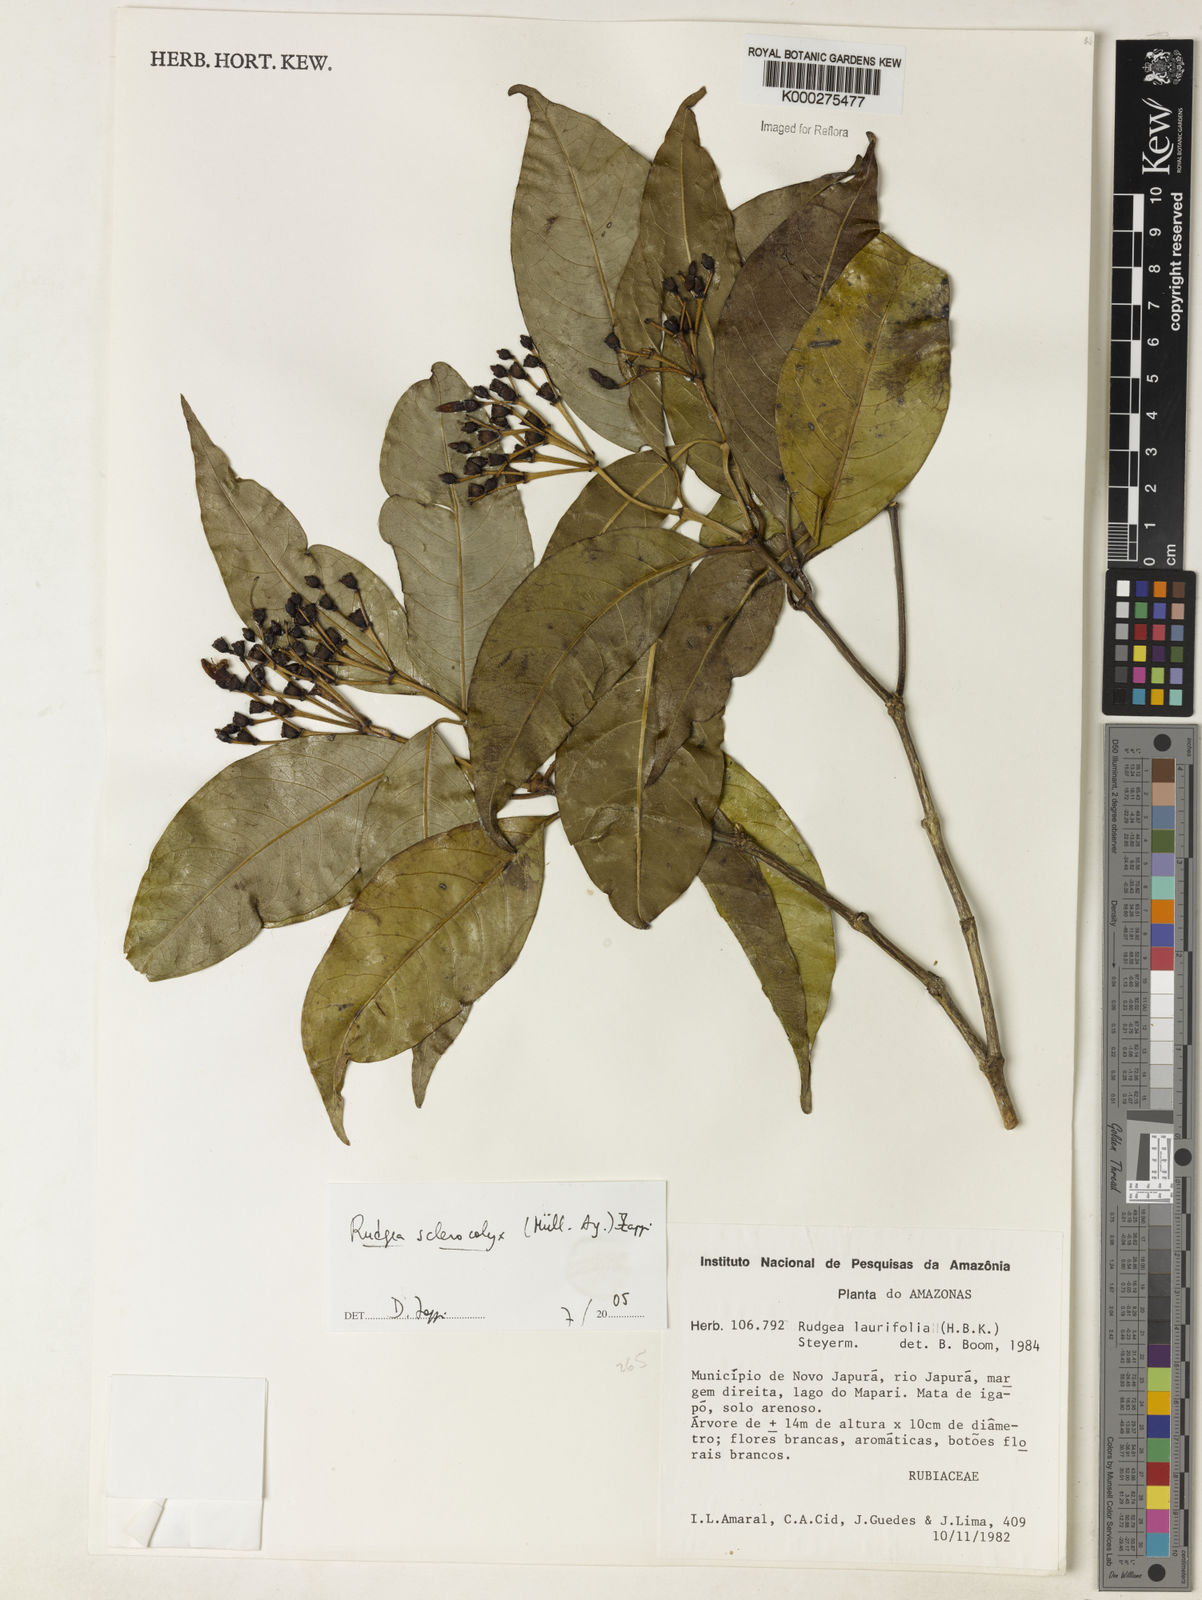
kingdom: Plantae
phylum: Tracheophyta
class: Magnoliopsida
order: Gentianales
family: Rubiaceae
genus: Rudgea
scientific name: Rudgea sclerocalyx
